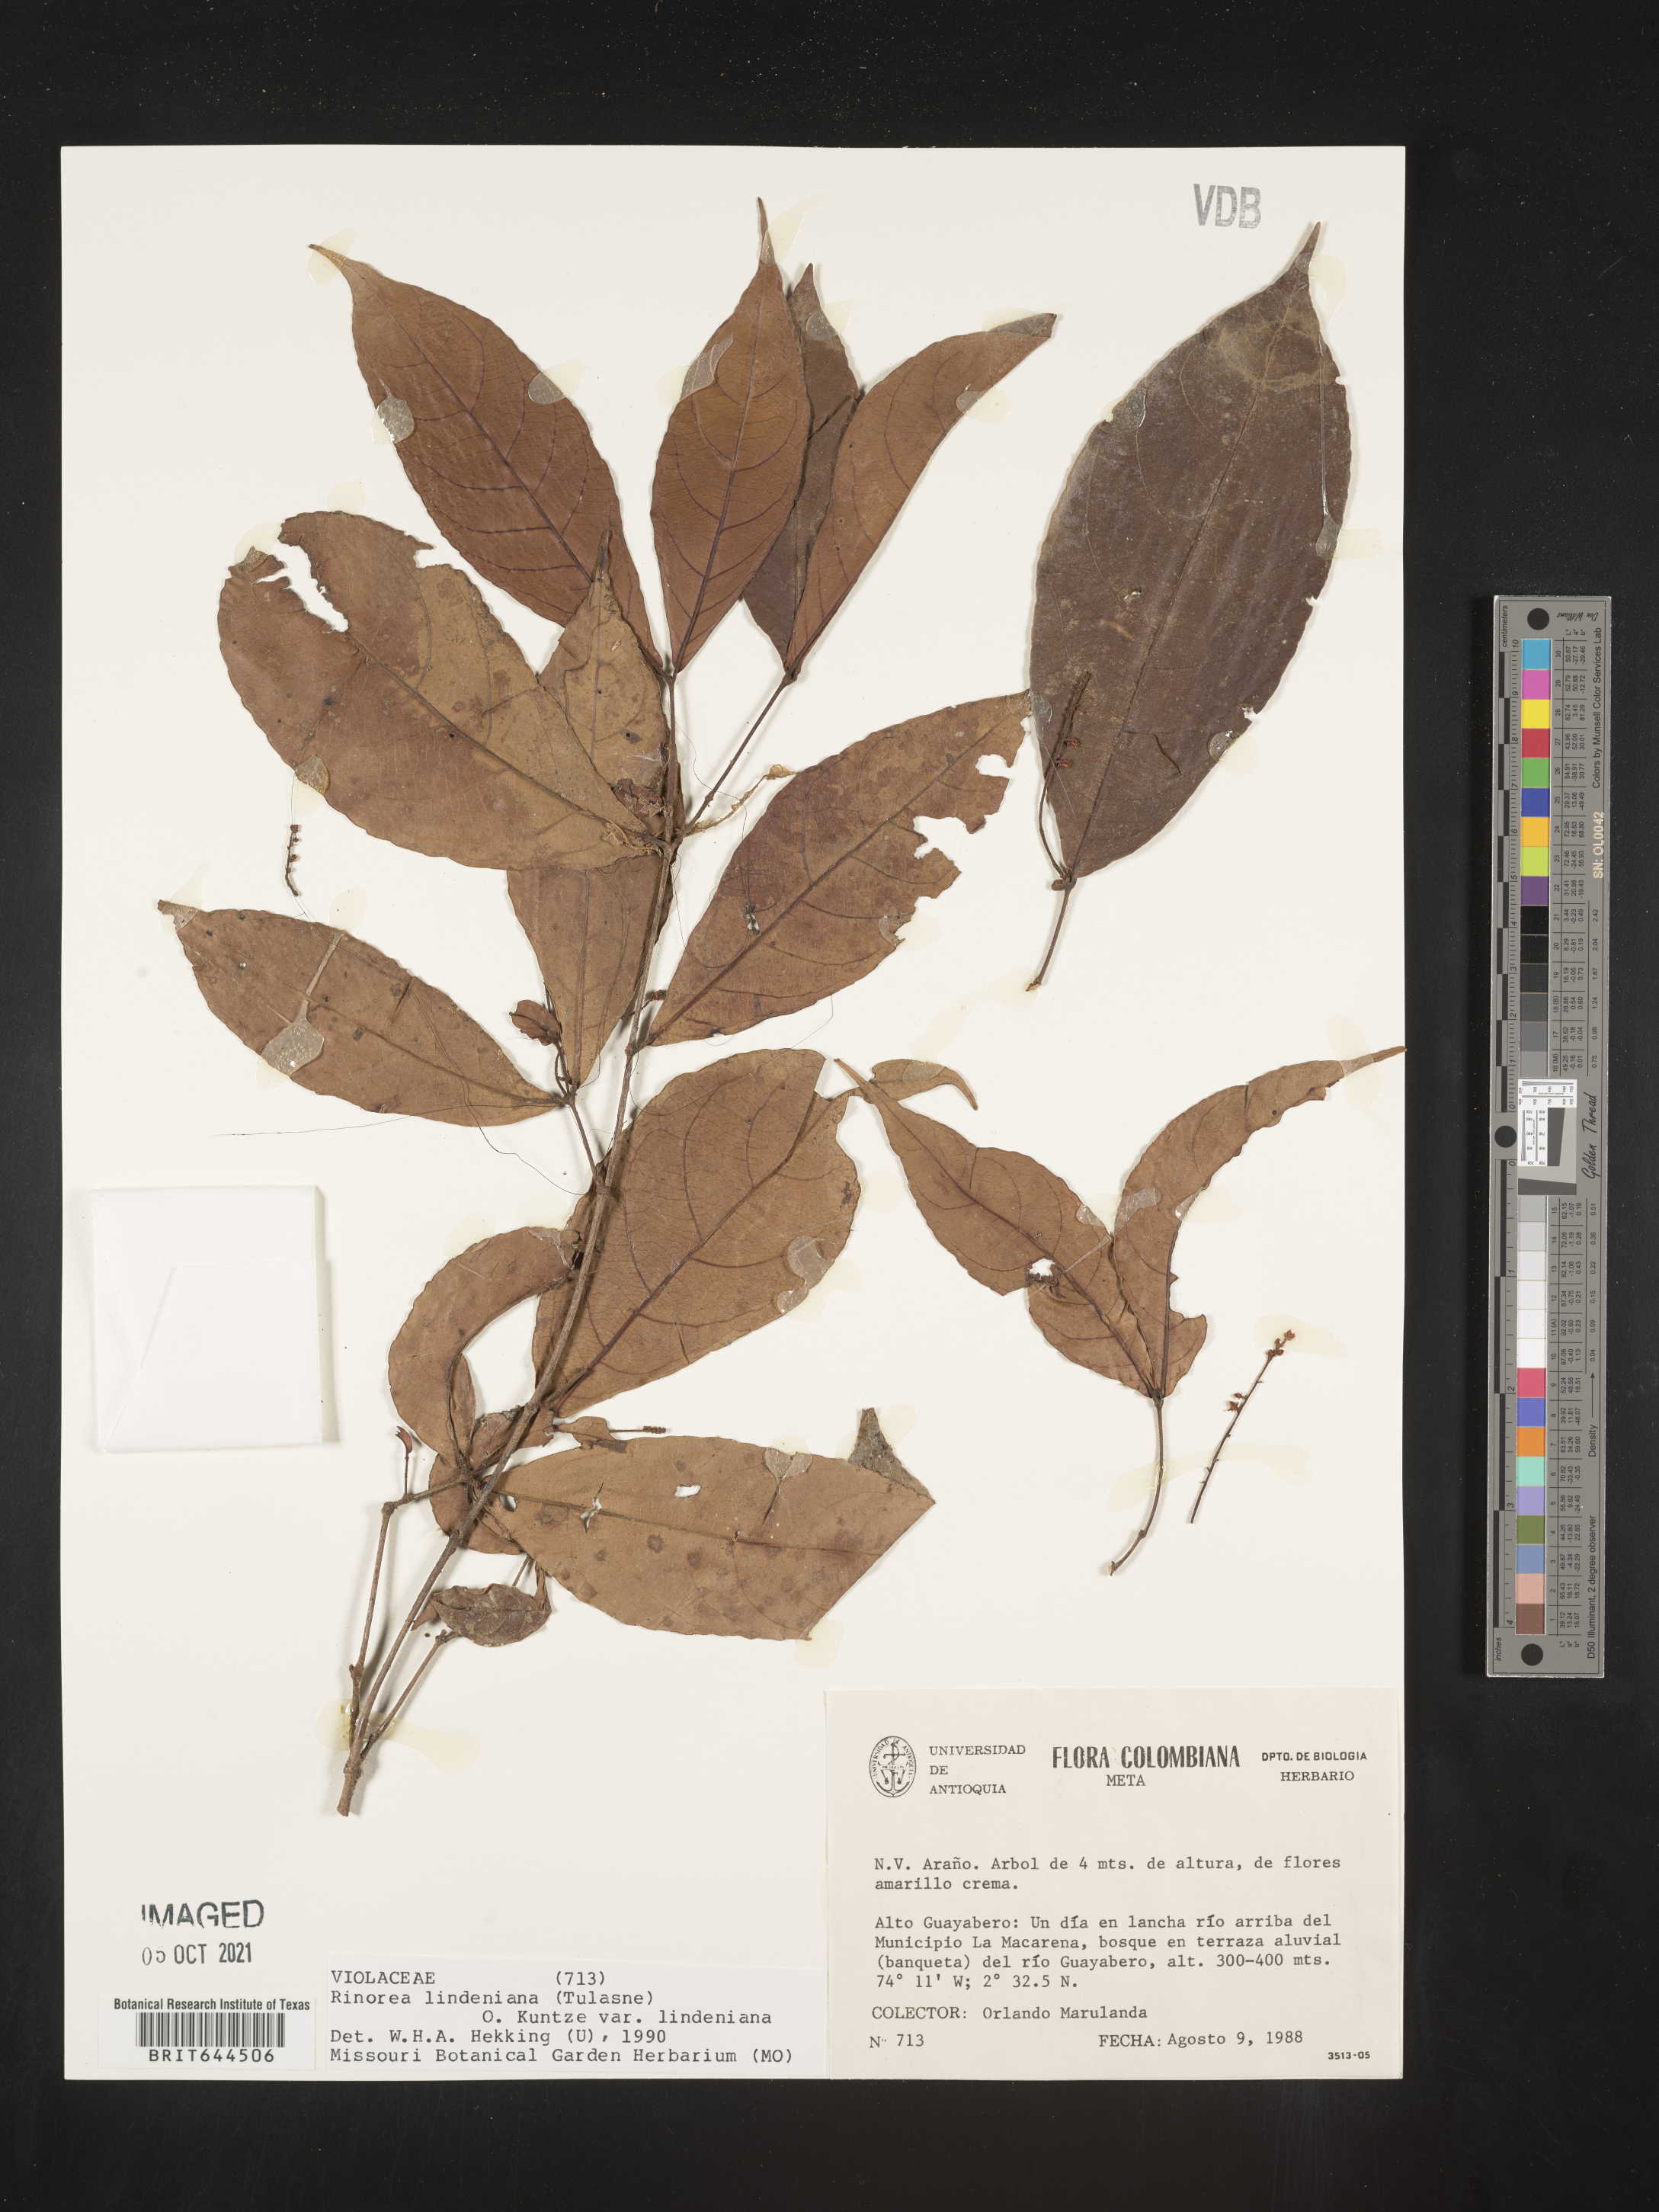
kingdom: Plantae
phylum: Tracheophyta
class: Magnoliopsida
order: Malpighiales
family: Violaceae
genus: Rinorea
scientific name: Rinorea
